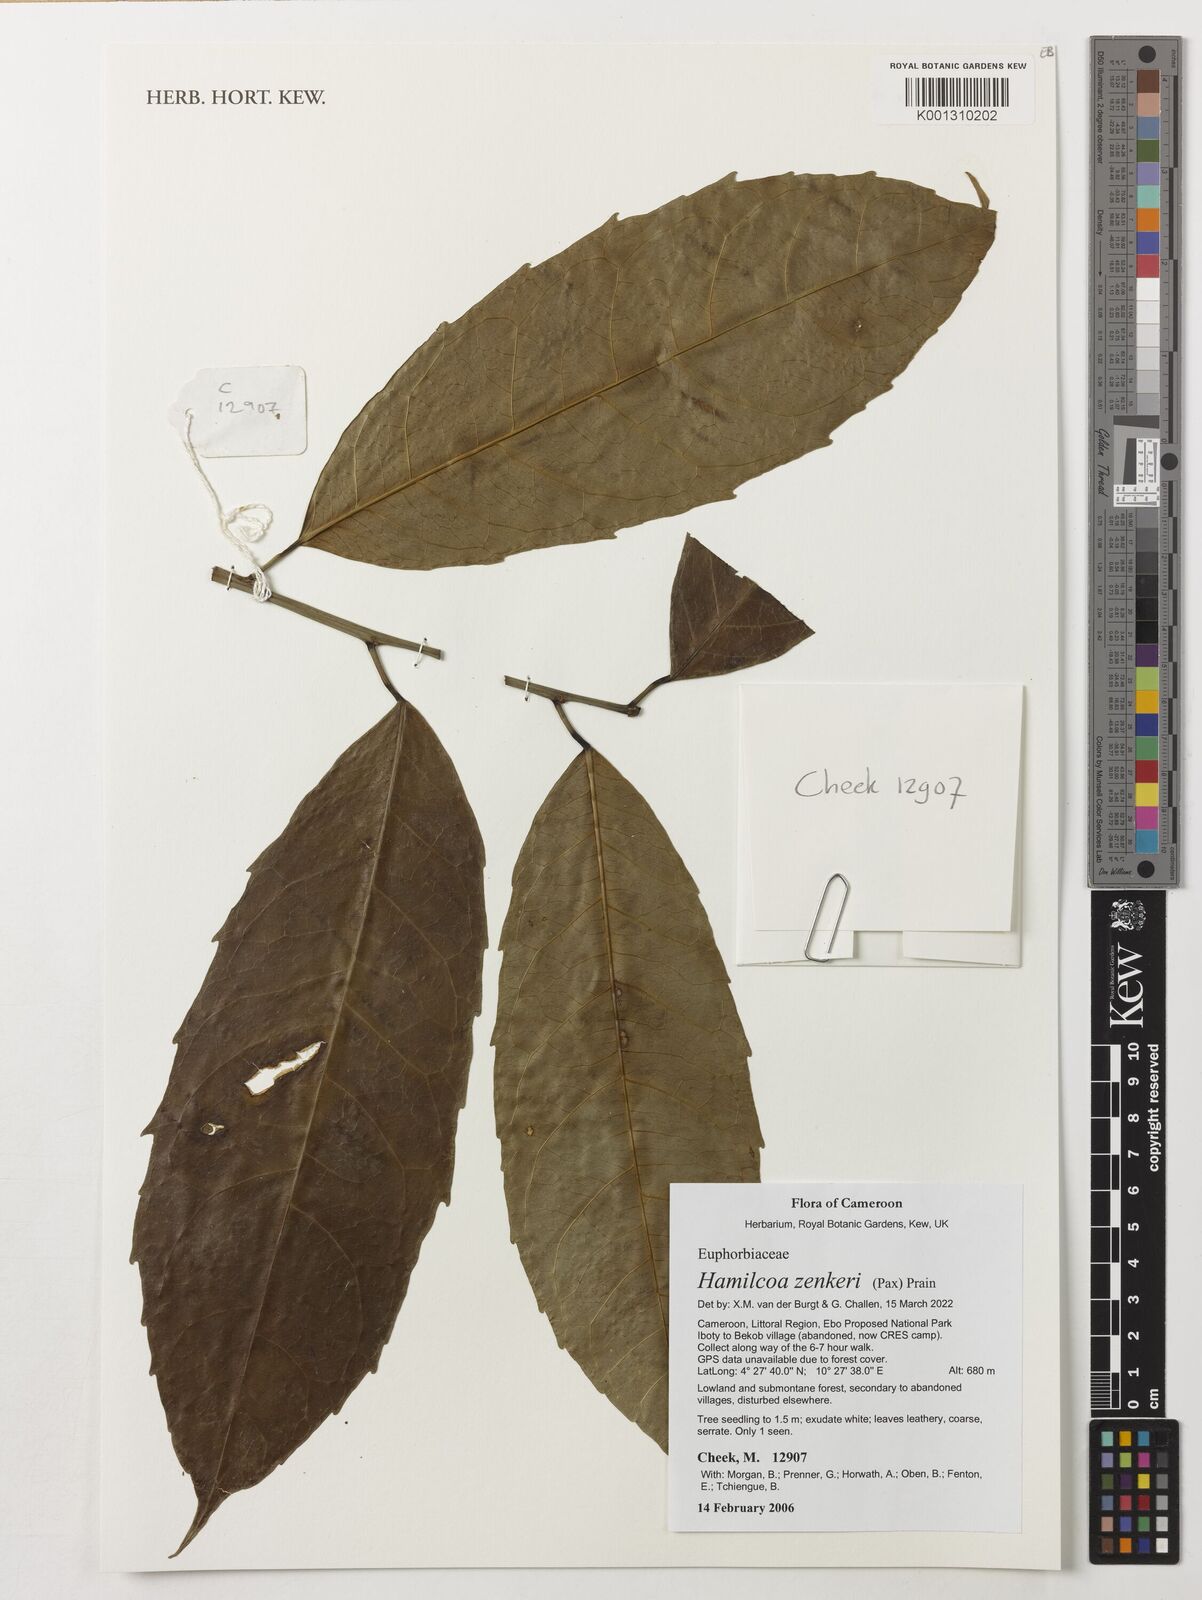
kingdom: Plantae
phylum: Tracheophyta
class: Magnoliopsida
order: Malpighiales
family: Euphorbiaceae
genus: Hamilcoa
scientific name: Hamilcoa zenkeri
